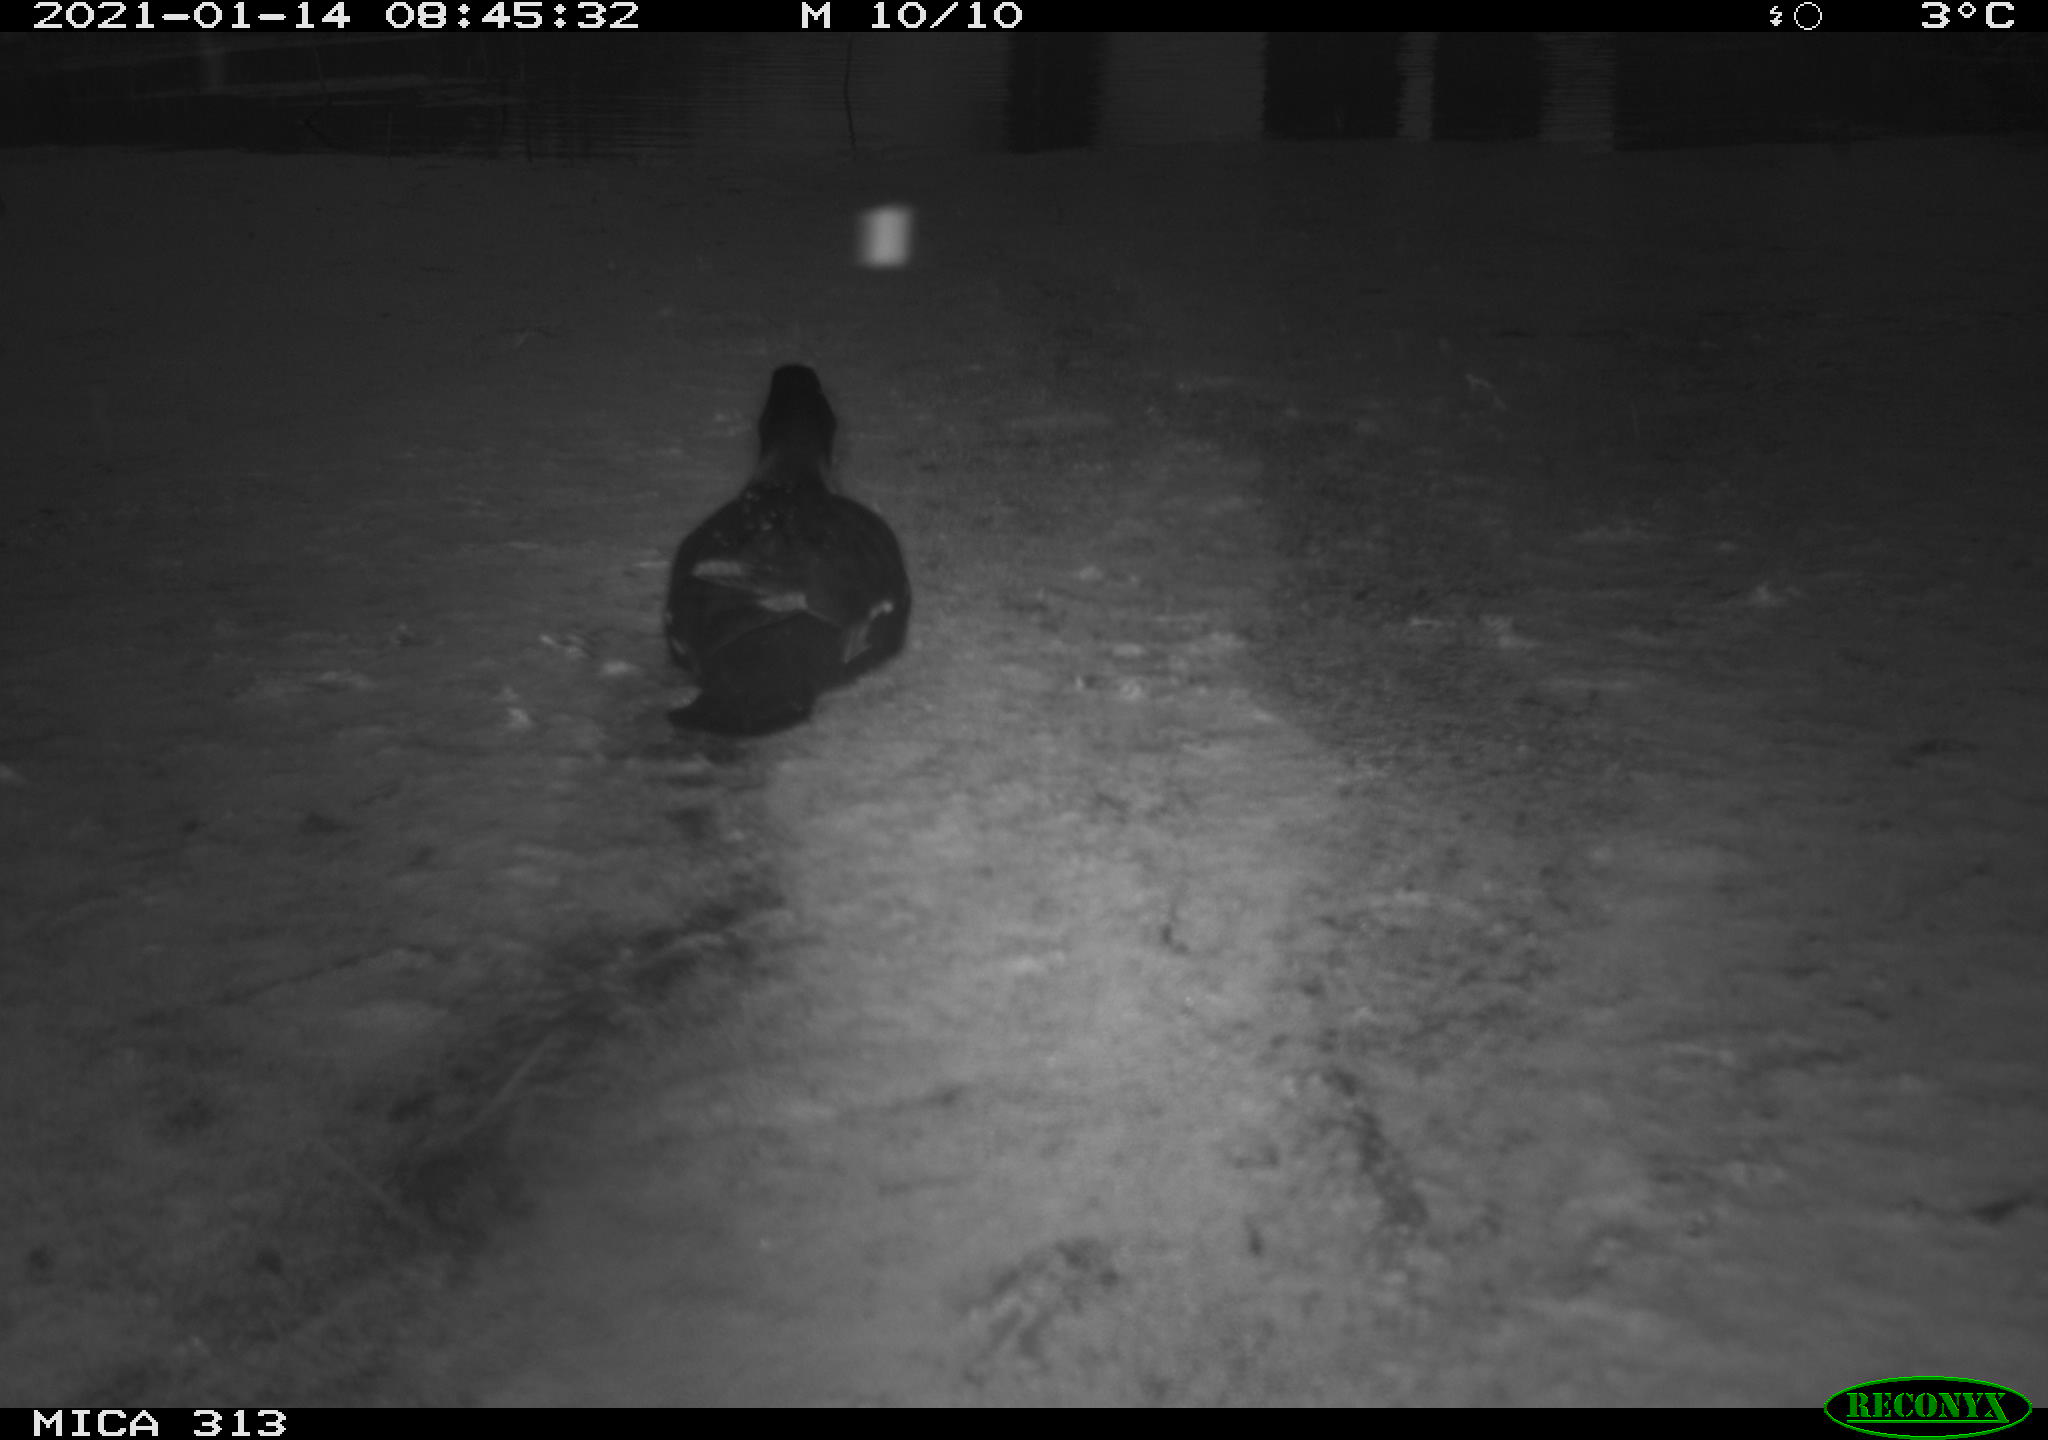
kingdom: Animalia
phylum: Chordata
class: Aves
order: Gruiformes
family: Rallidae
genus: Gallinula
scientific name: Gallinula chloropus
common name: Common moorhen
